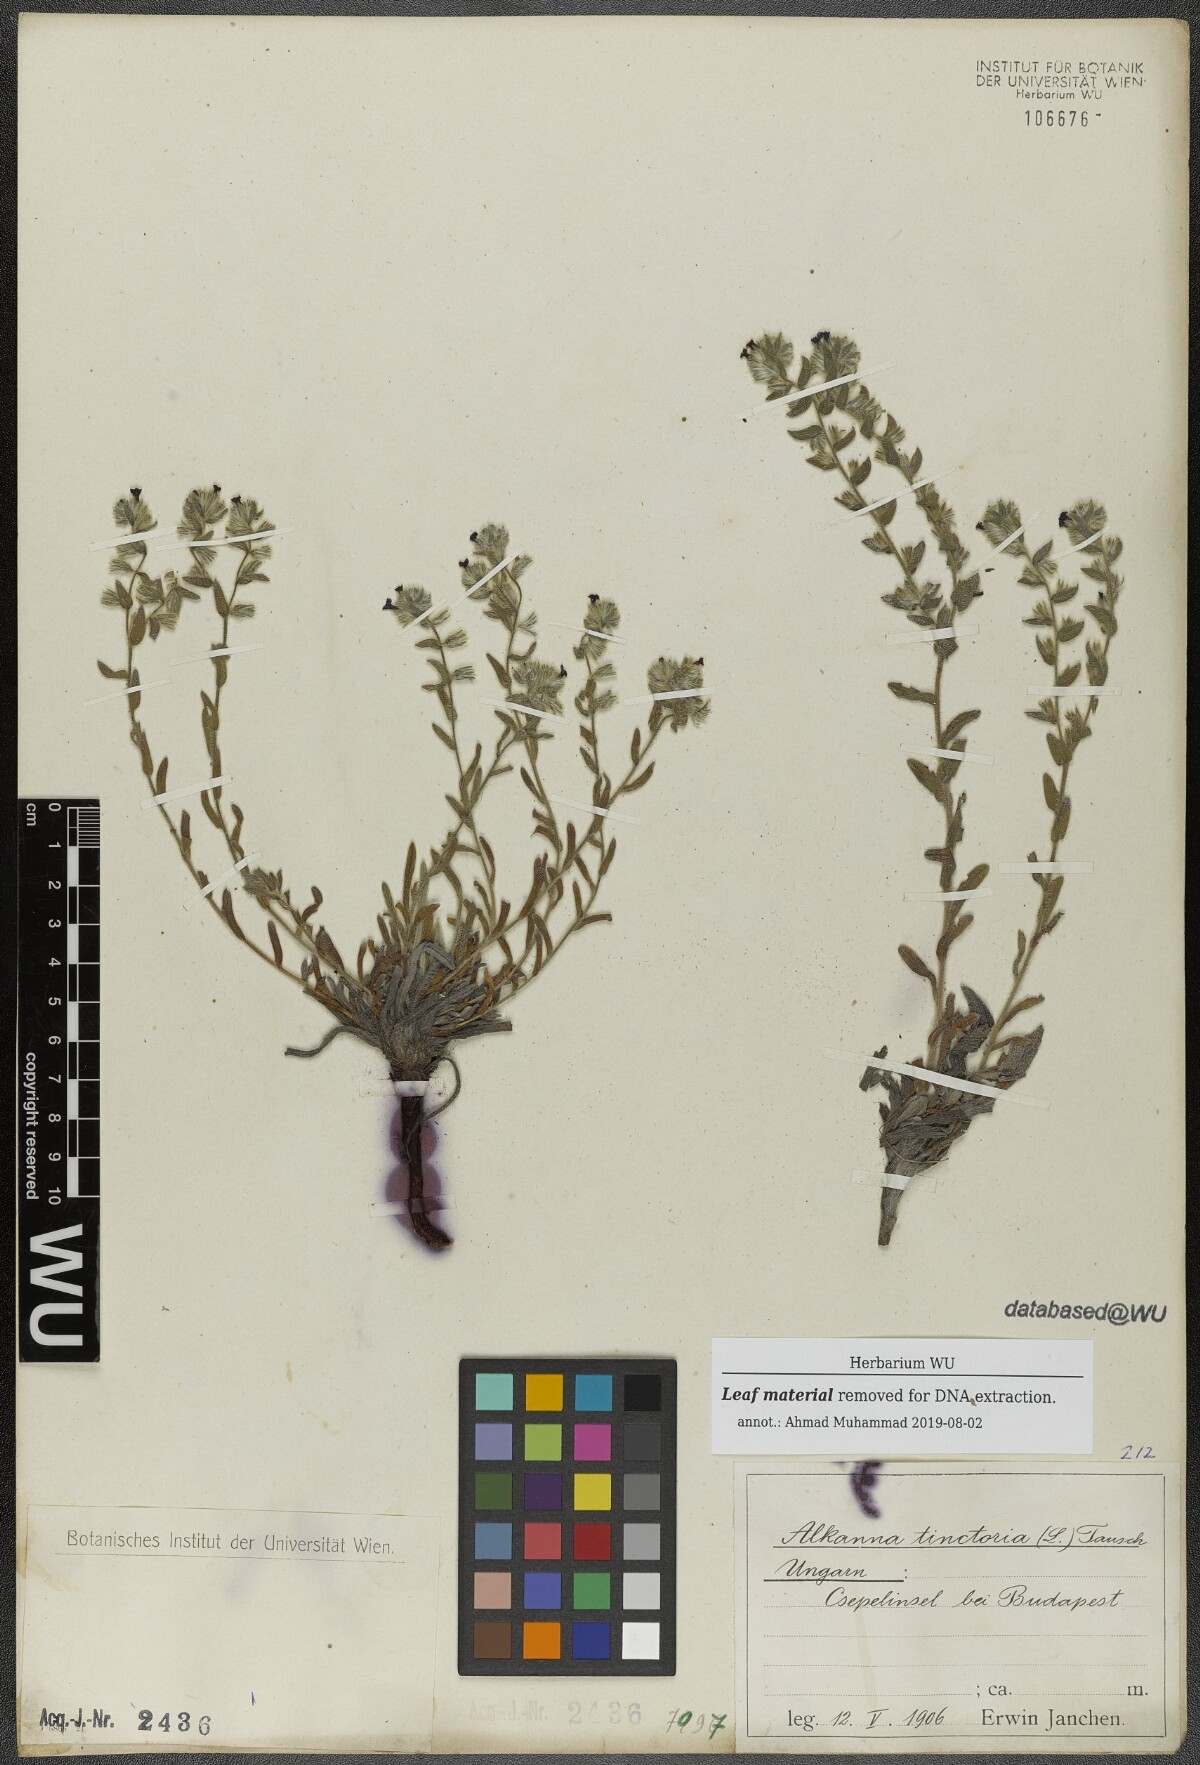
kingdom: Plantae
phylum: Tracheophyta
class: Magnoliopsida
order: Boraginales
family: Boraginaceae
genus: Alkanna
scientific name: Alkanna tinctoria
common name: Dyer's-alkanet
